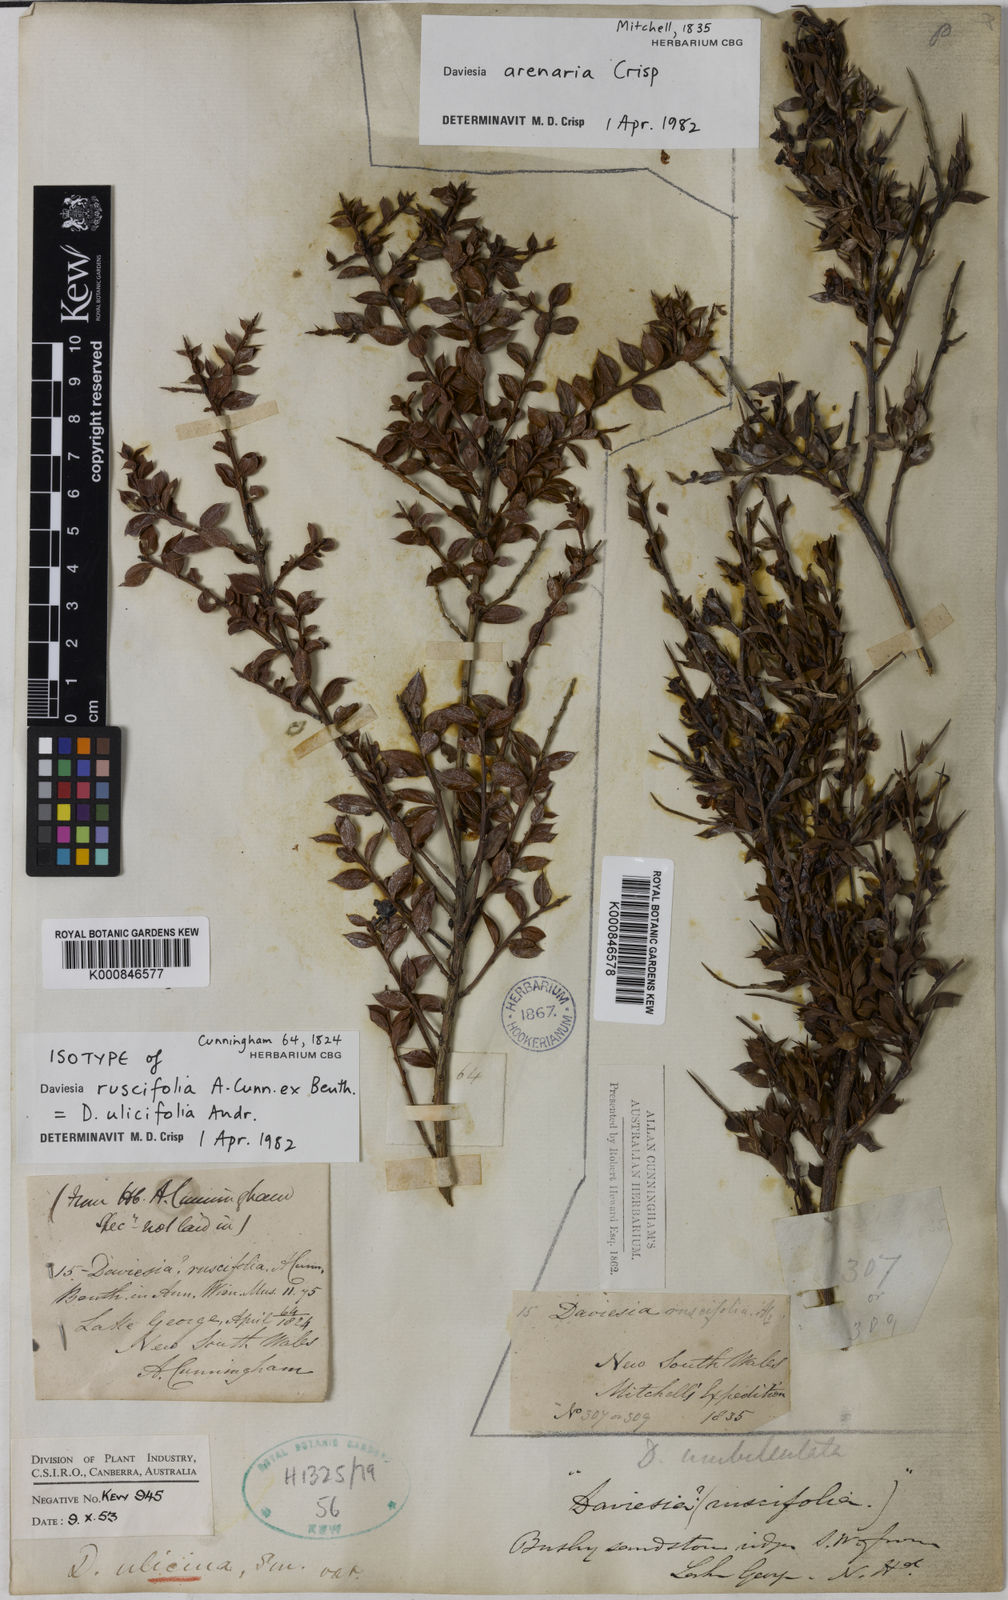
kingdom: Plantae
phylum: Tracheophyta
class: Magnoliopsida
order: Fabales
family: Fabaceae
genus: Daviesia
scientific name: Daviesia ulicifolia
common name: Gorse bitter-pea
